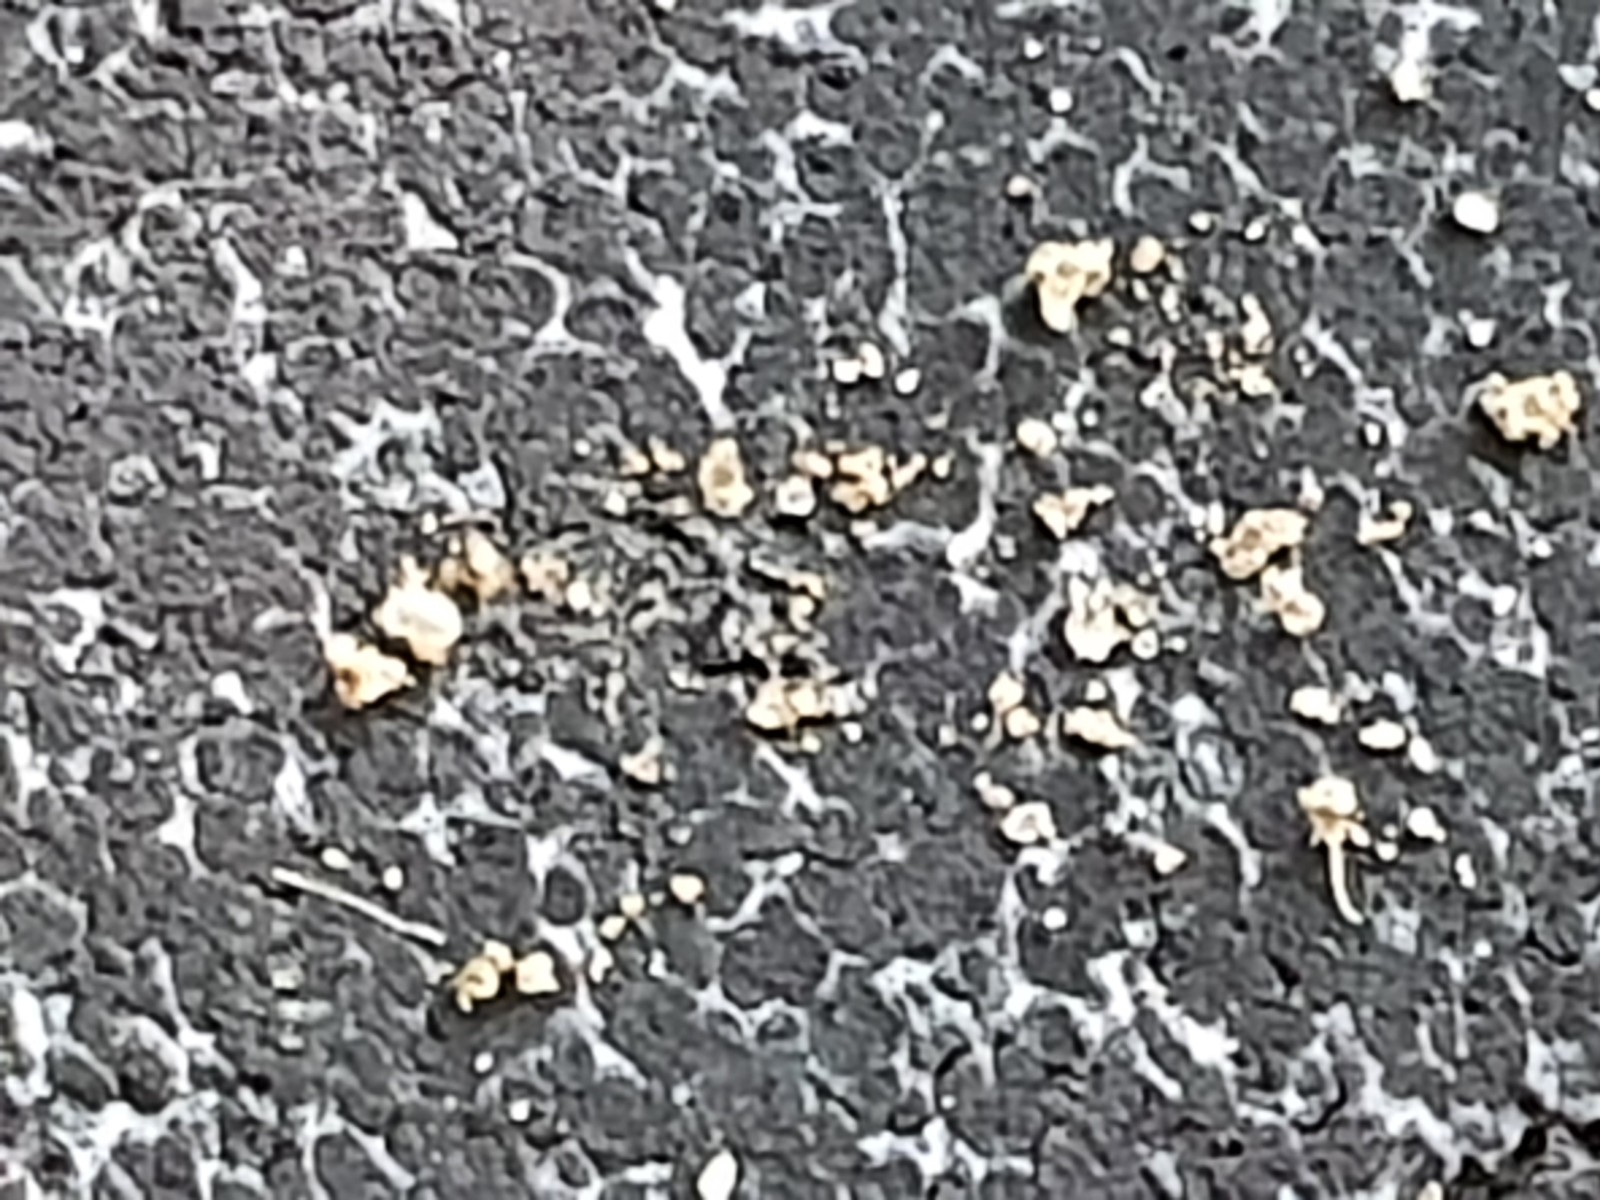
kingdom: Fungi
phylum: Basidiomycota
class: Agaricomycetes
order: Boletales
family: Sclerodermataceae
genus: Scleroderma
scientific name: Scleroderma
